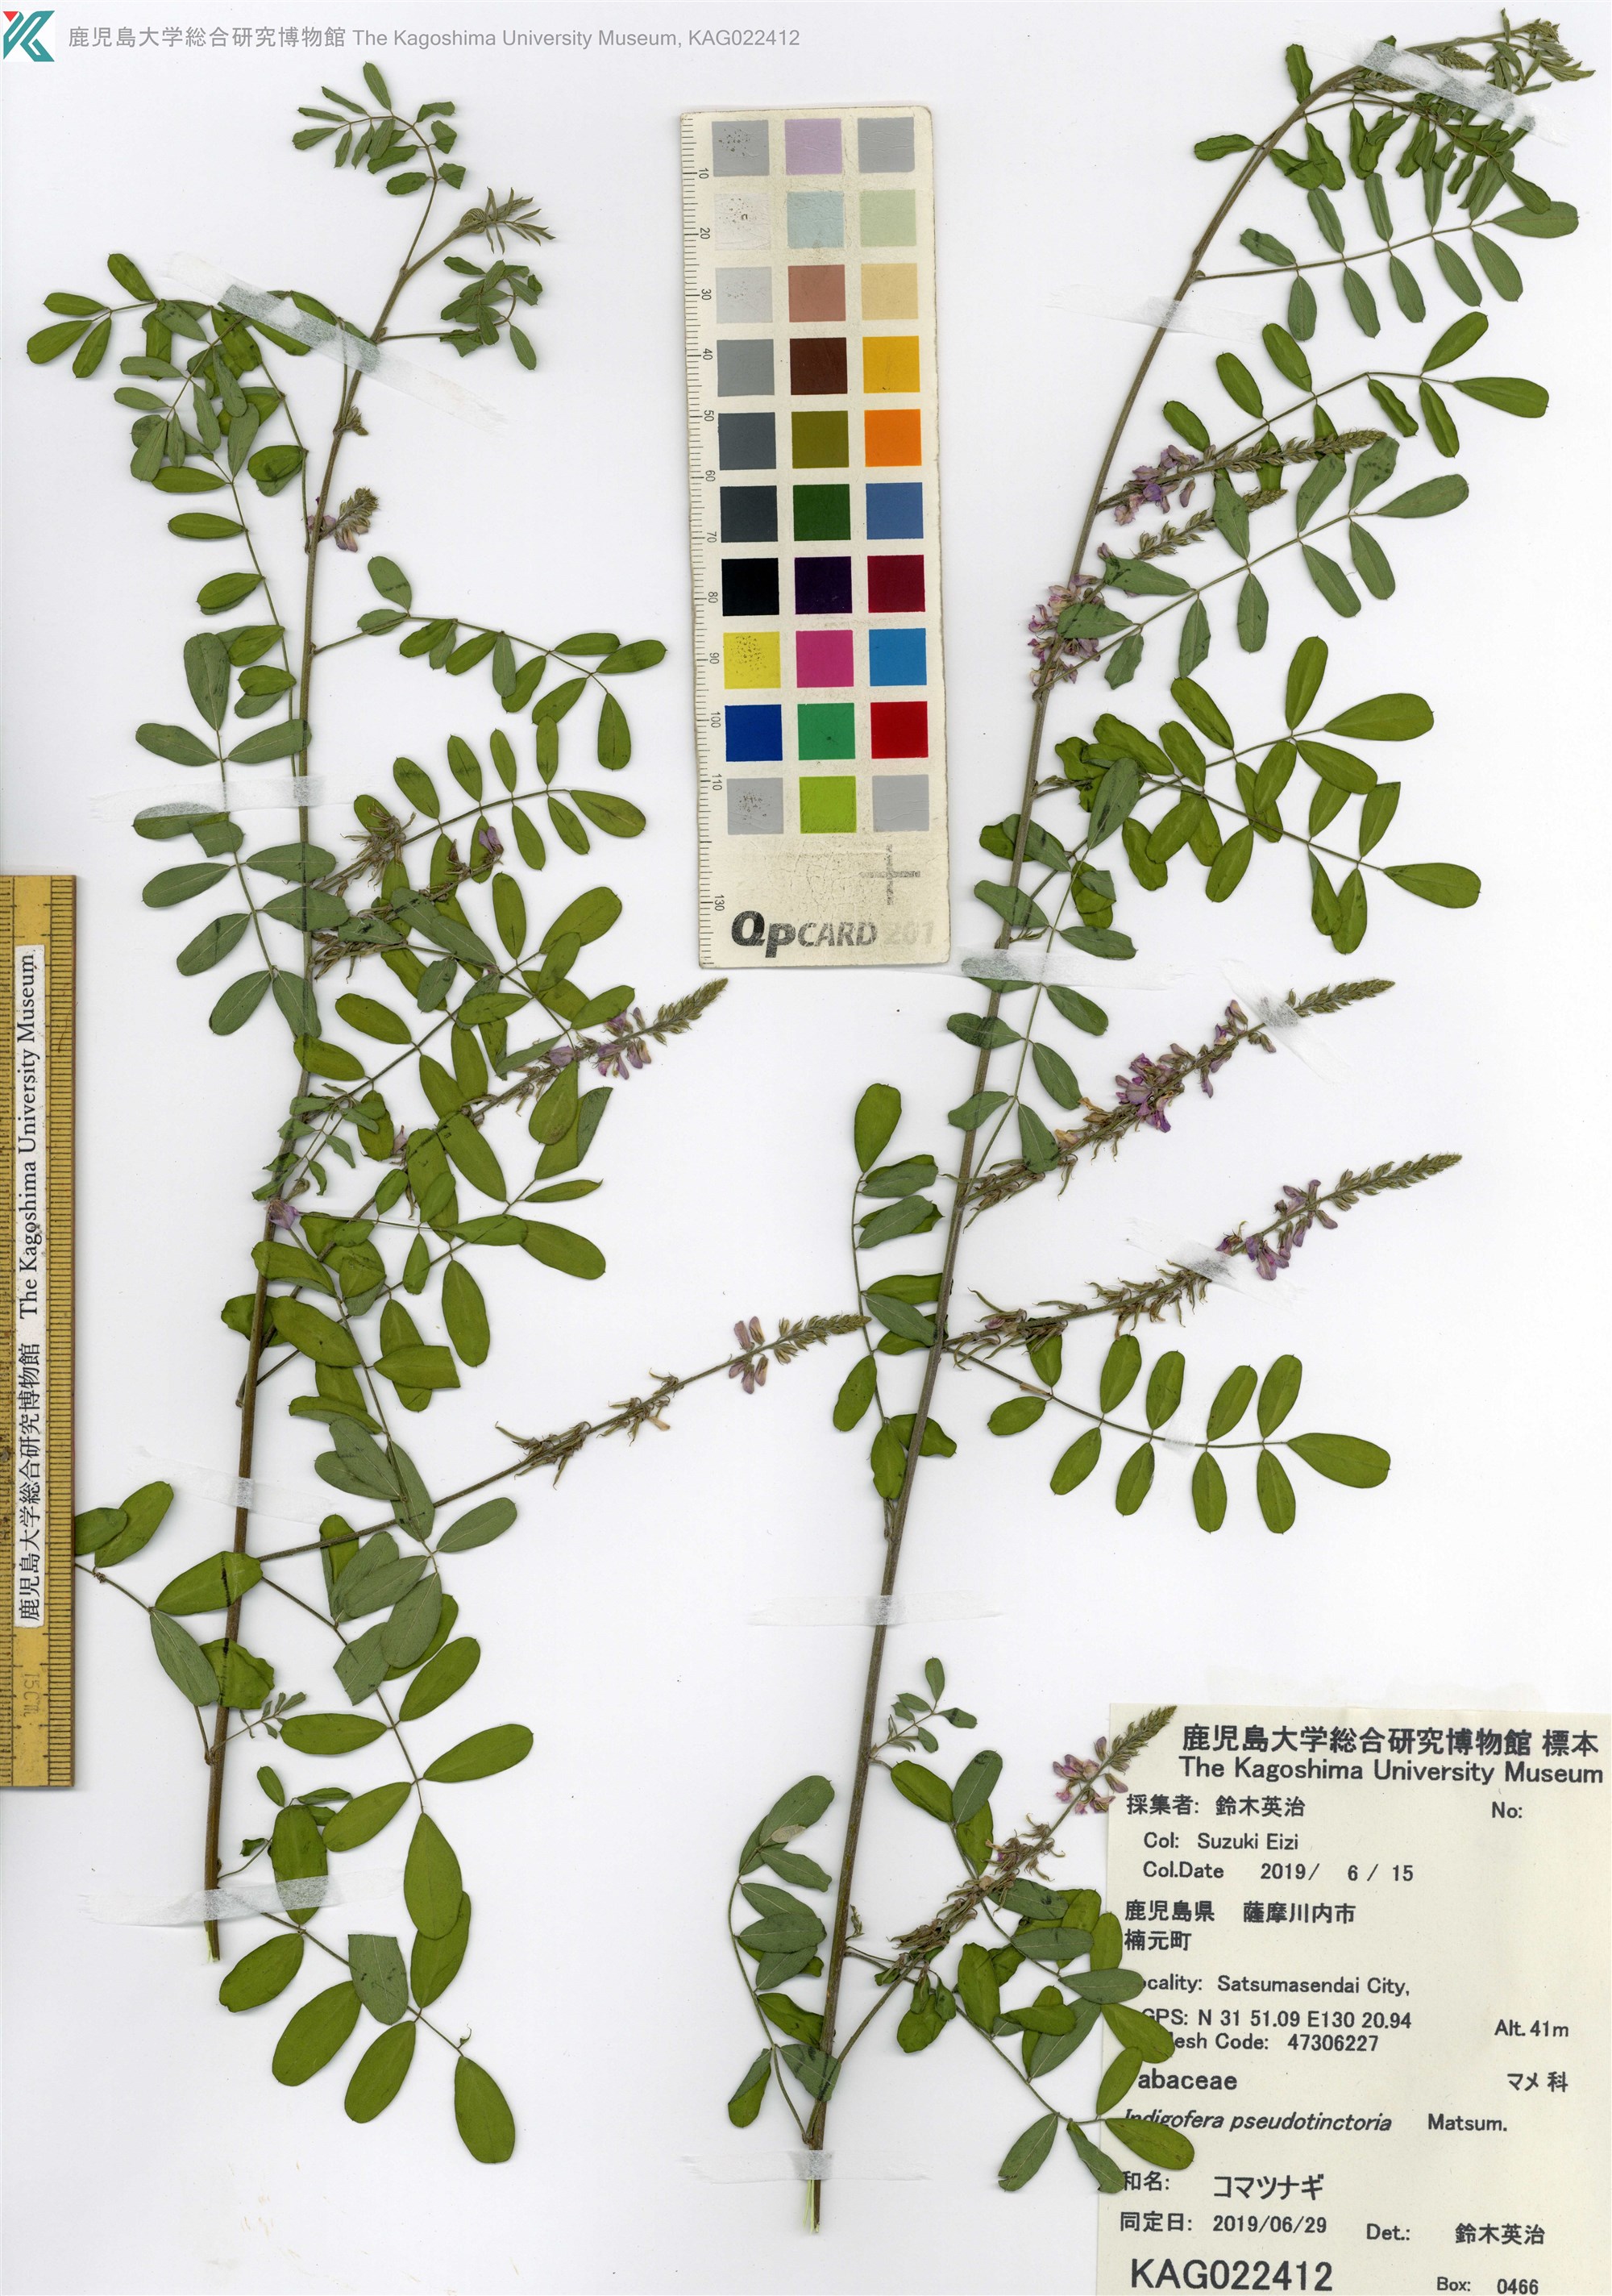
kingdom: Plantae
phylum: Tracheophyta
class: Magnoliopsida
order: Fabales
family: Fabaceae
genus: Indigofera
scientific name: Indigofera bungeana
